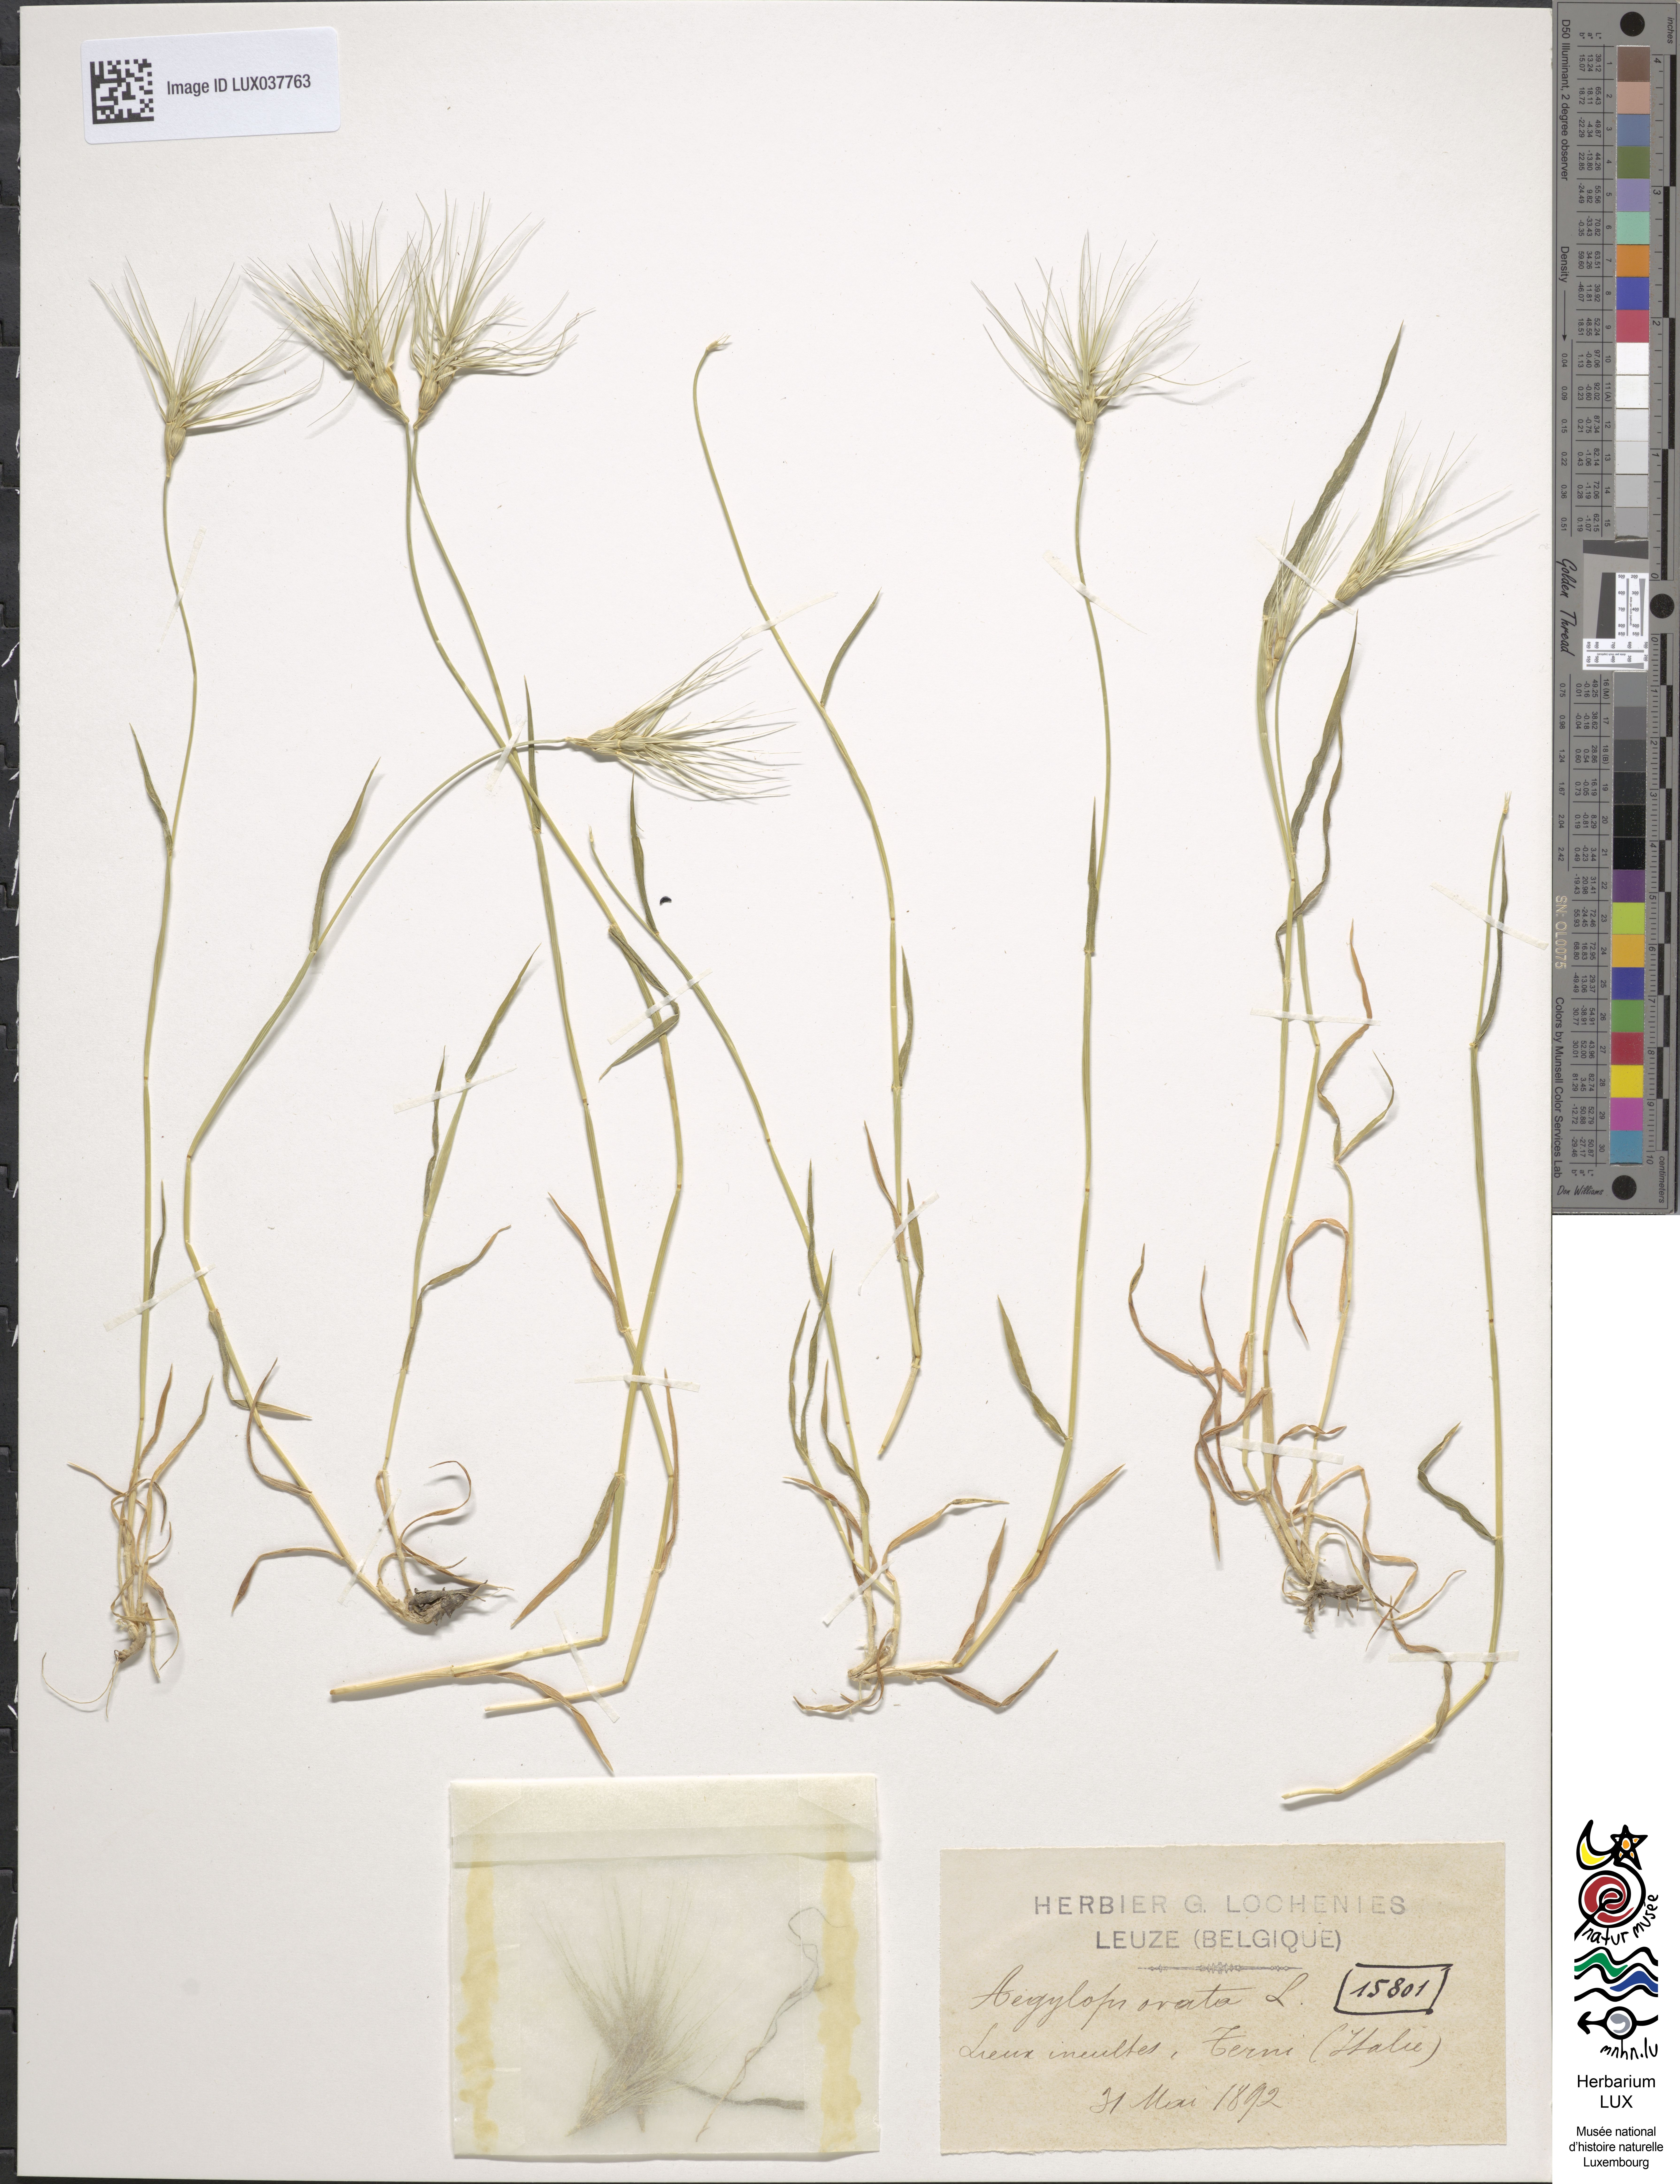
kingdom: Plantae
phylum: Tracheophyta
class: Liliopsida
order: Poales
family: Poaceae
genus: Aegilops
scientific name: Aegilops neglecta
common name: Three-awn goat grass
